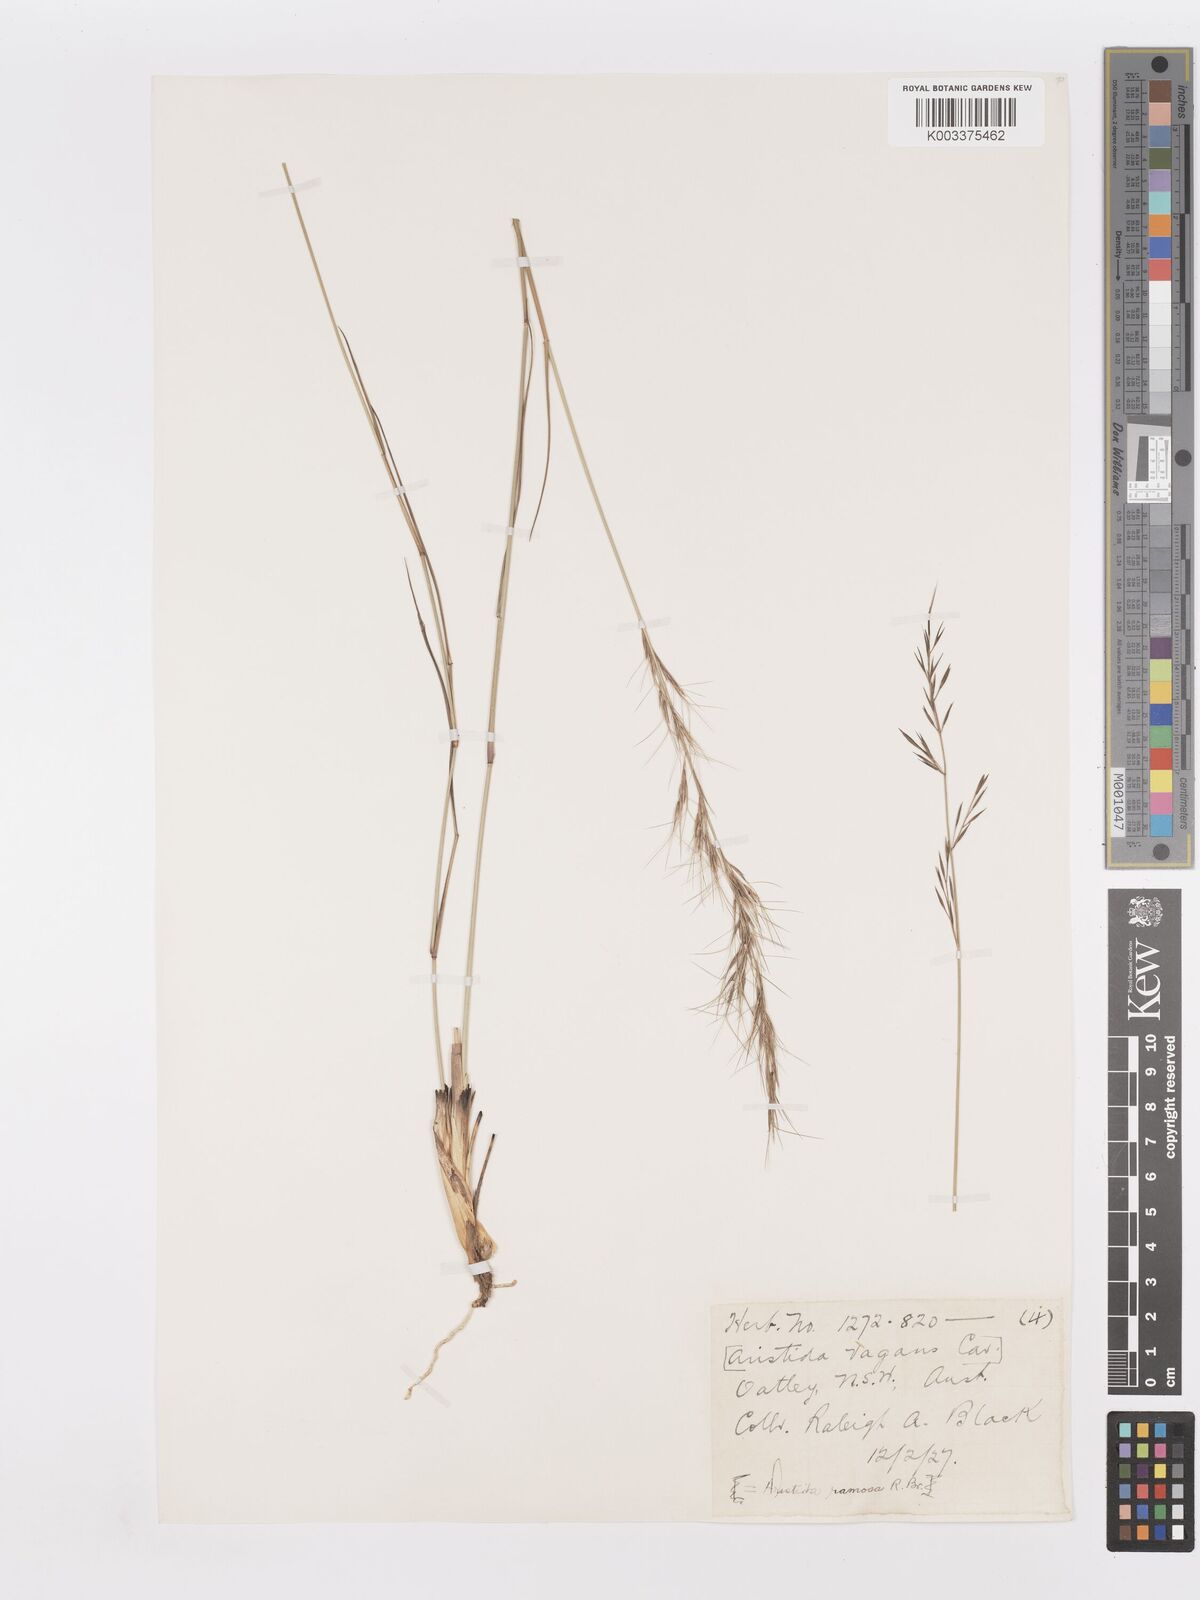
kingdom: Plantae
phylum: Tracheophyta
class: Liliopsida
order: Poales
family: Poaceae
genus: Aristida
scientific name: Aristida ramosa
